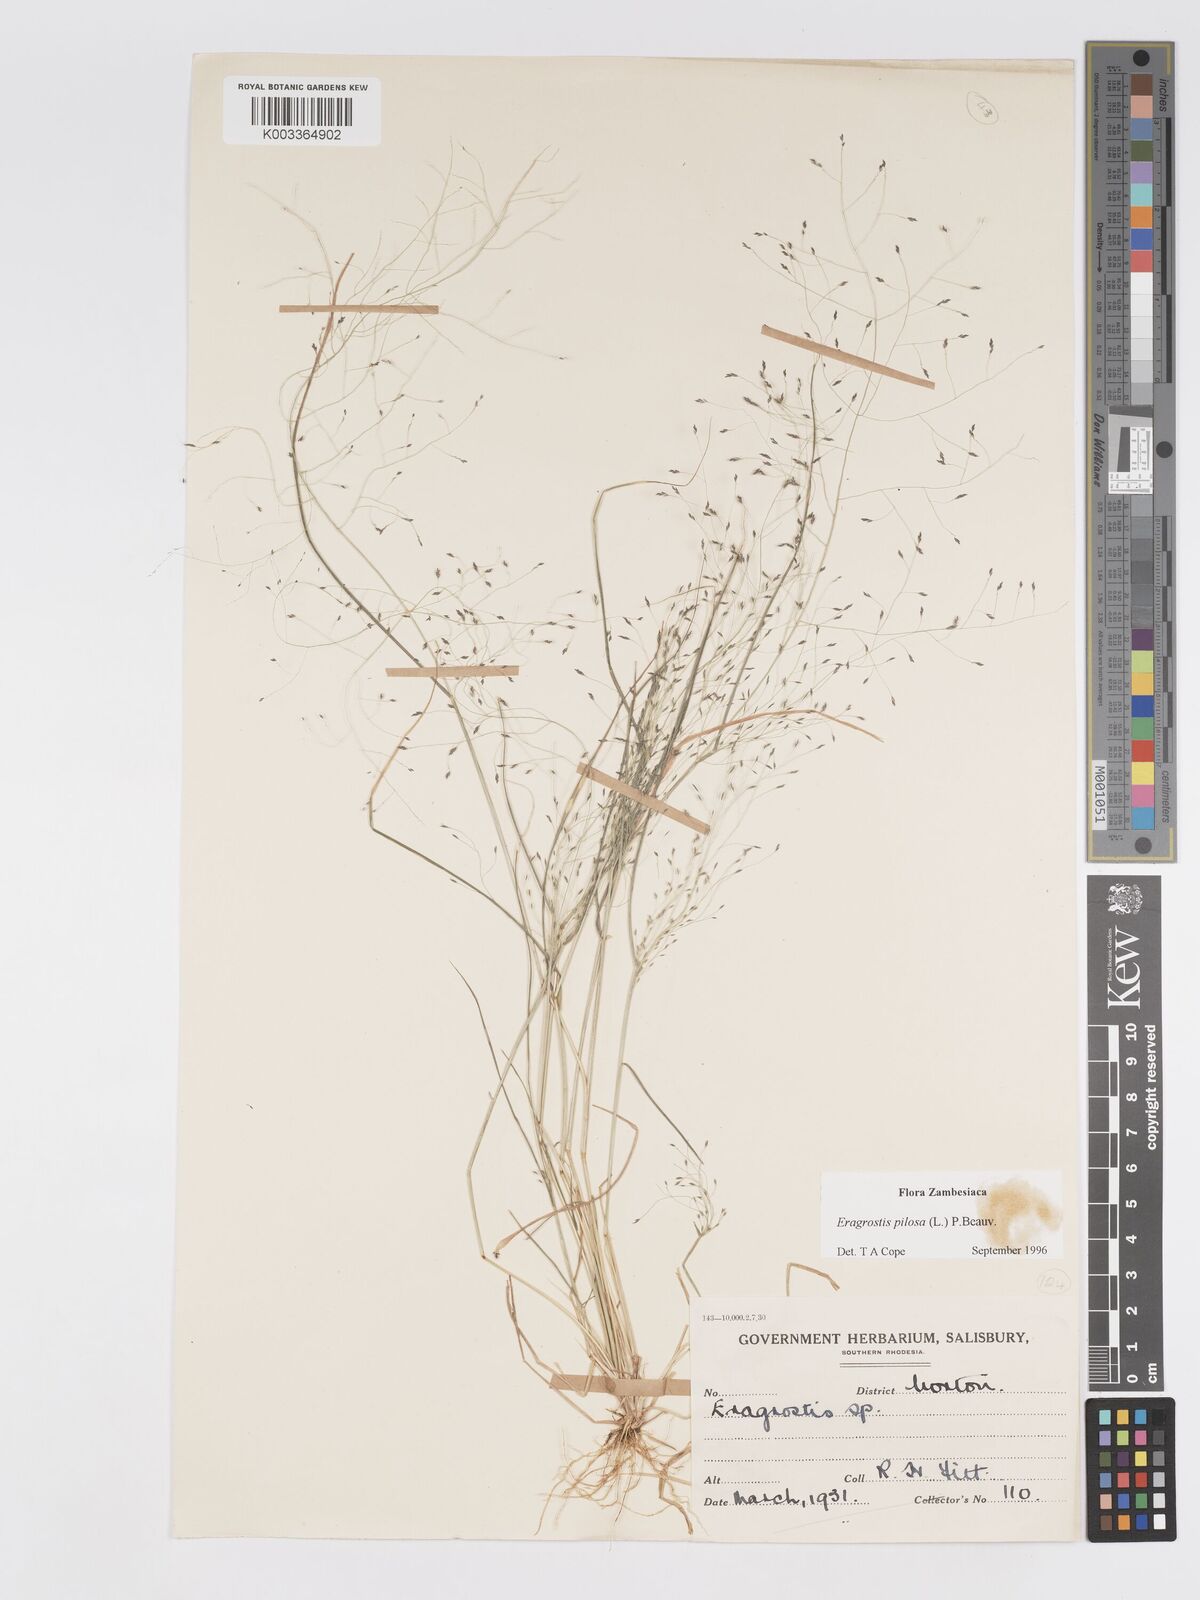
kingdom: Plantae
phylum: Tracheophyta
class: Liliopsida
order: Poales
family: Poaceae
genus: Eragrostis
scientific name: Eragrostis pilosa
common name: Indian lovegrass
